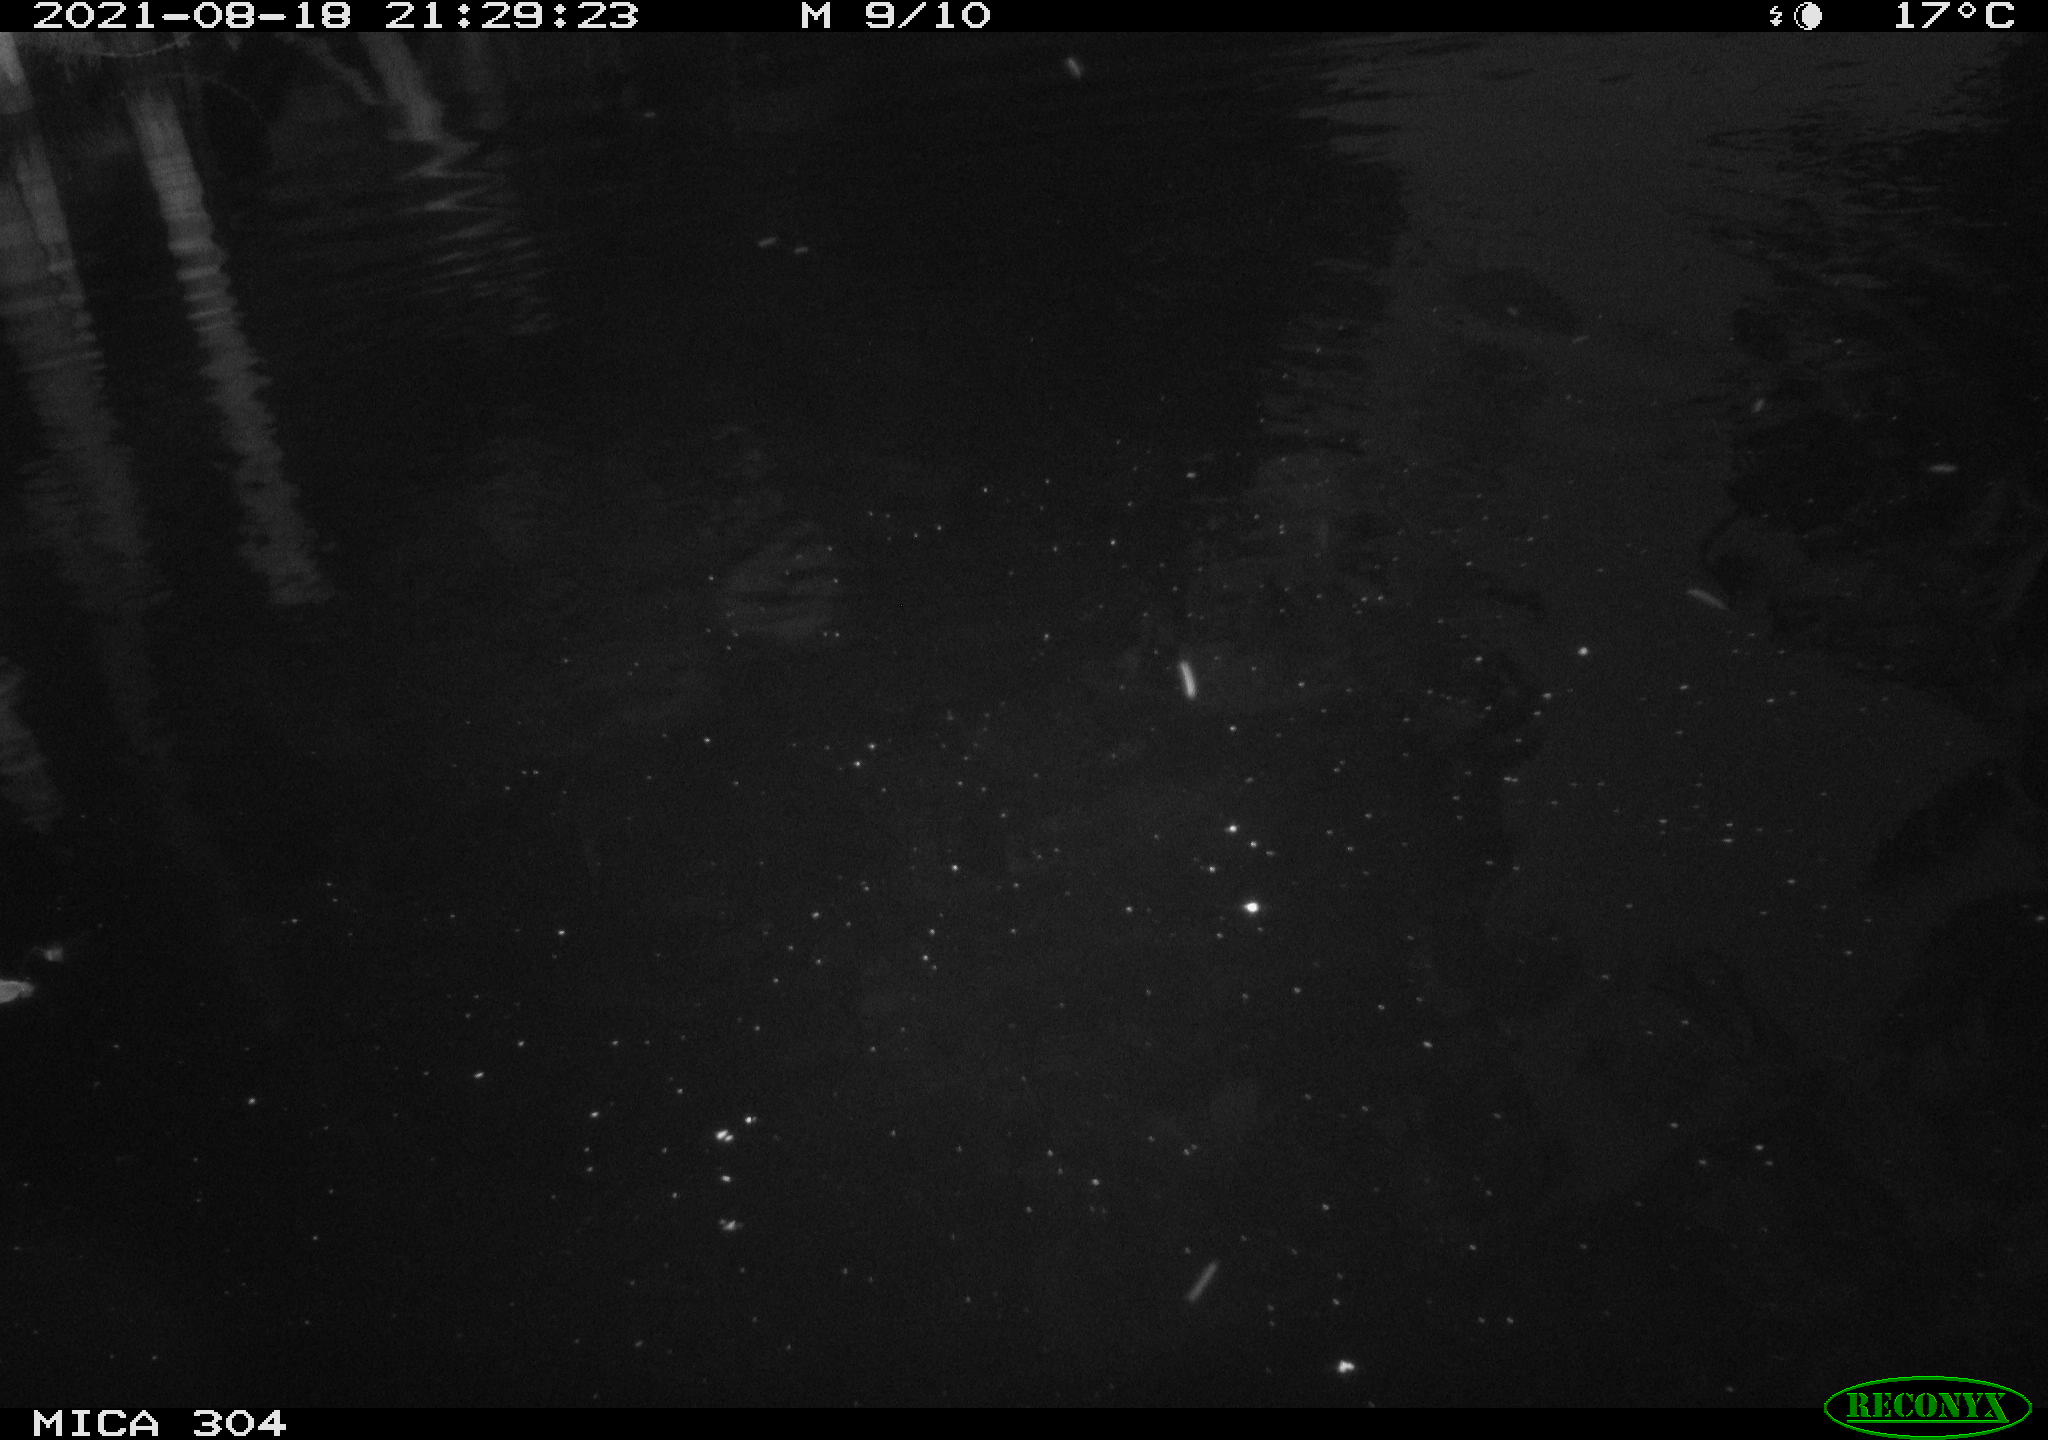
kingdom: Animalia
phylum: Chordata
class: Aves
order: Anseriformes
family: Anatidae
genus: Mareca
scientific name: Mareca strepera
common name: Gadwall
